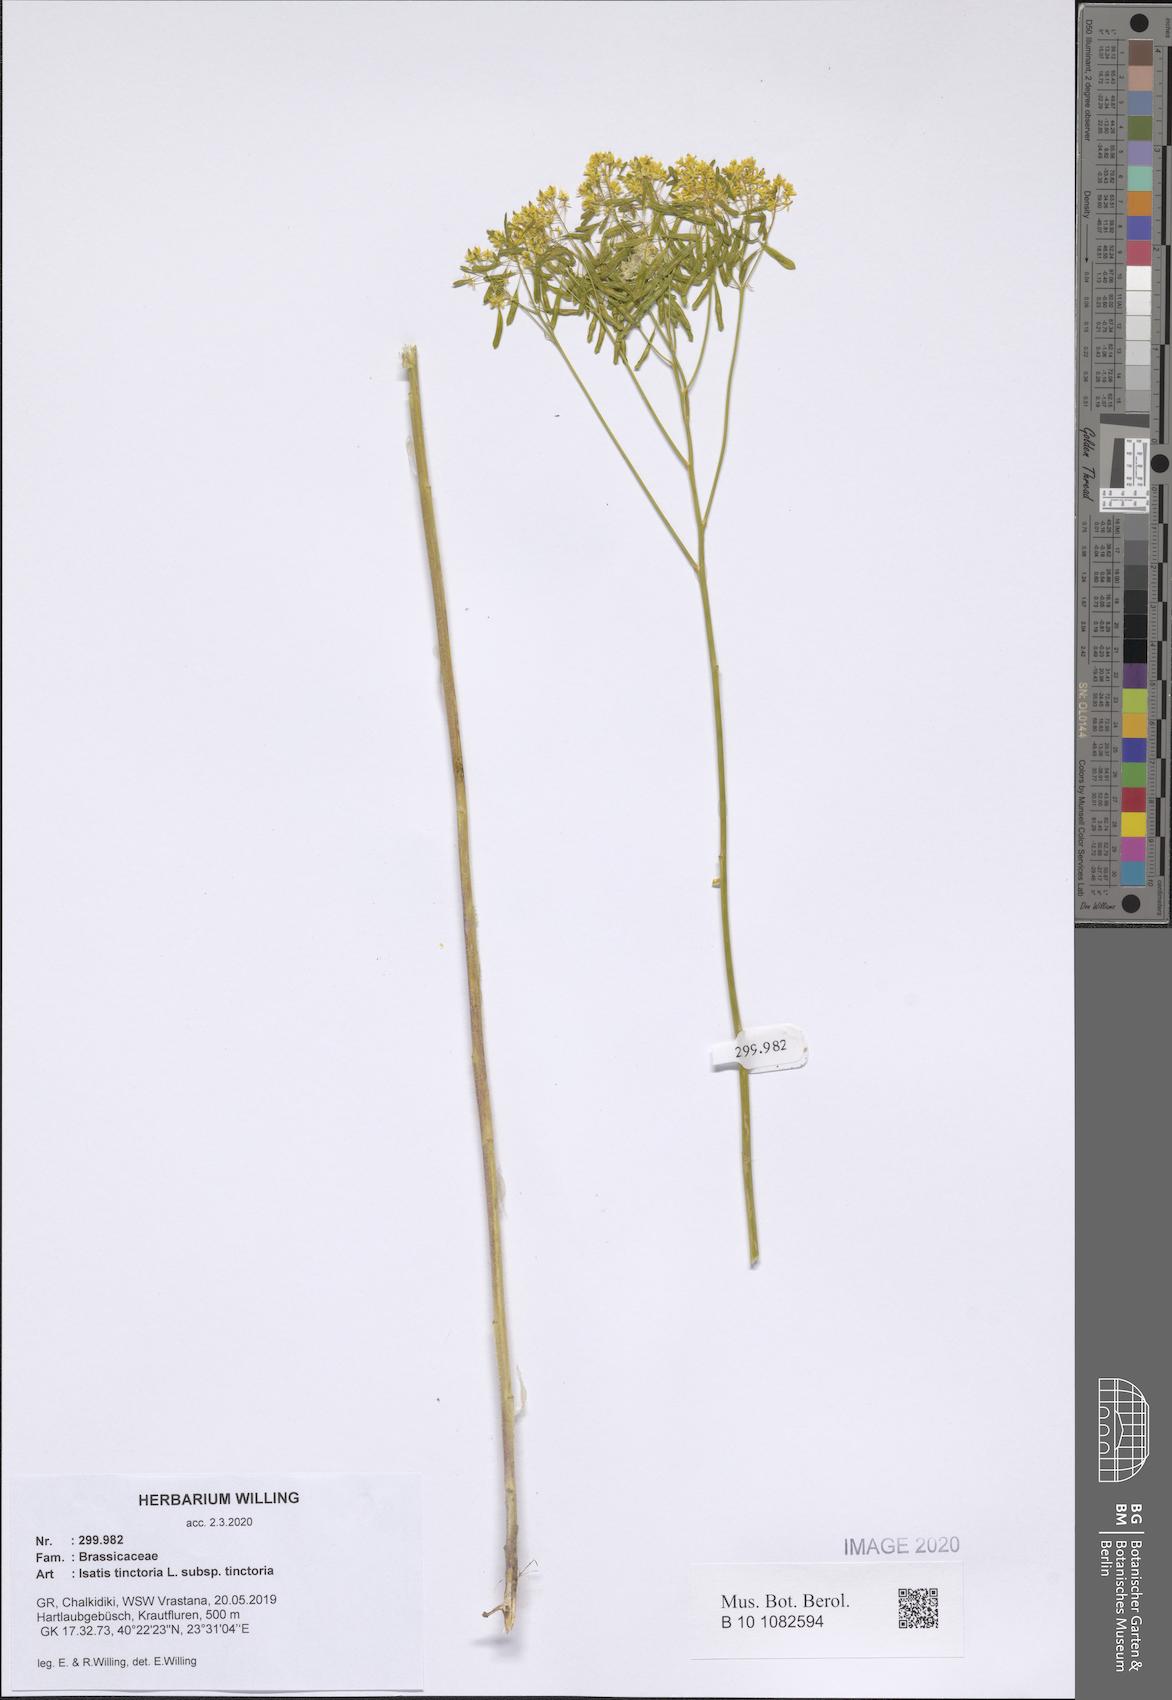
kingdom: Plantae
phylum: Tracheophyta
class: Magnoliopsida
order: Brassicales
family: Brassicaceae
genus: Isatis
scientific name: Isatis tinctoria
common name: Woad
